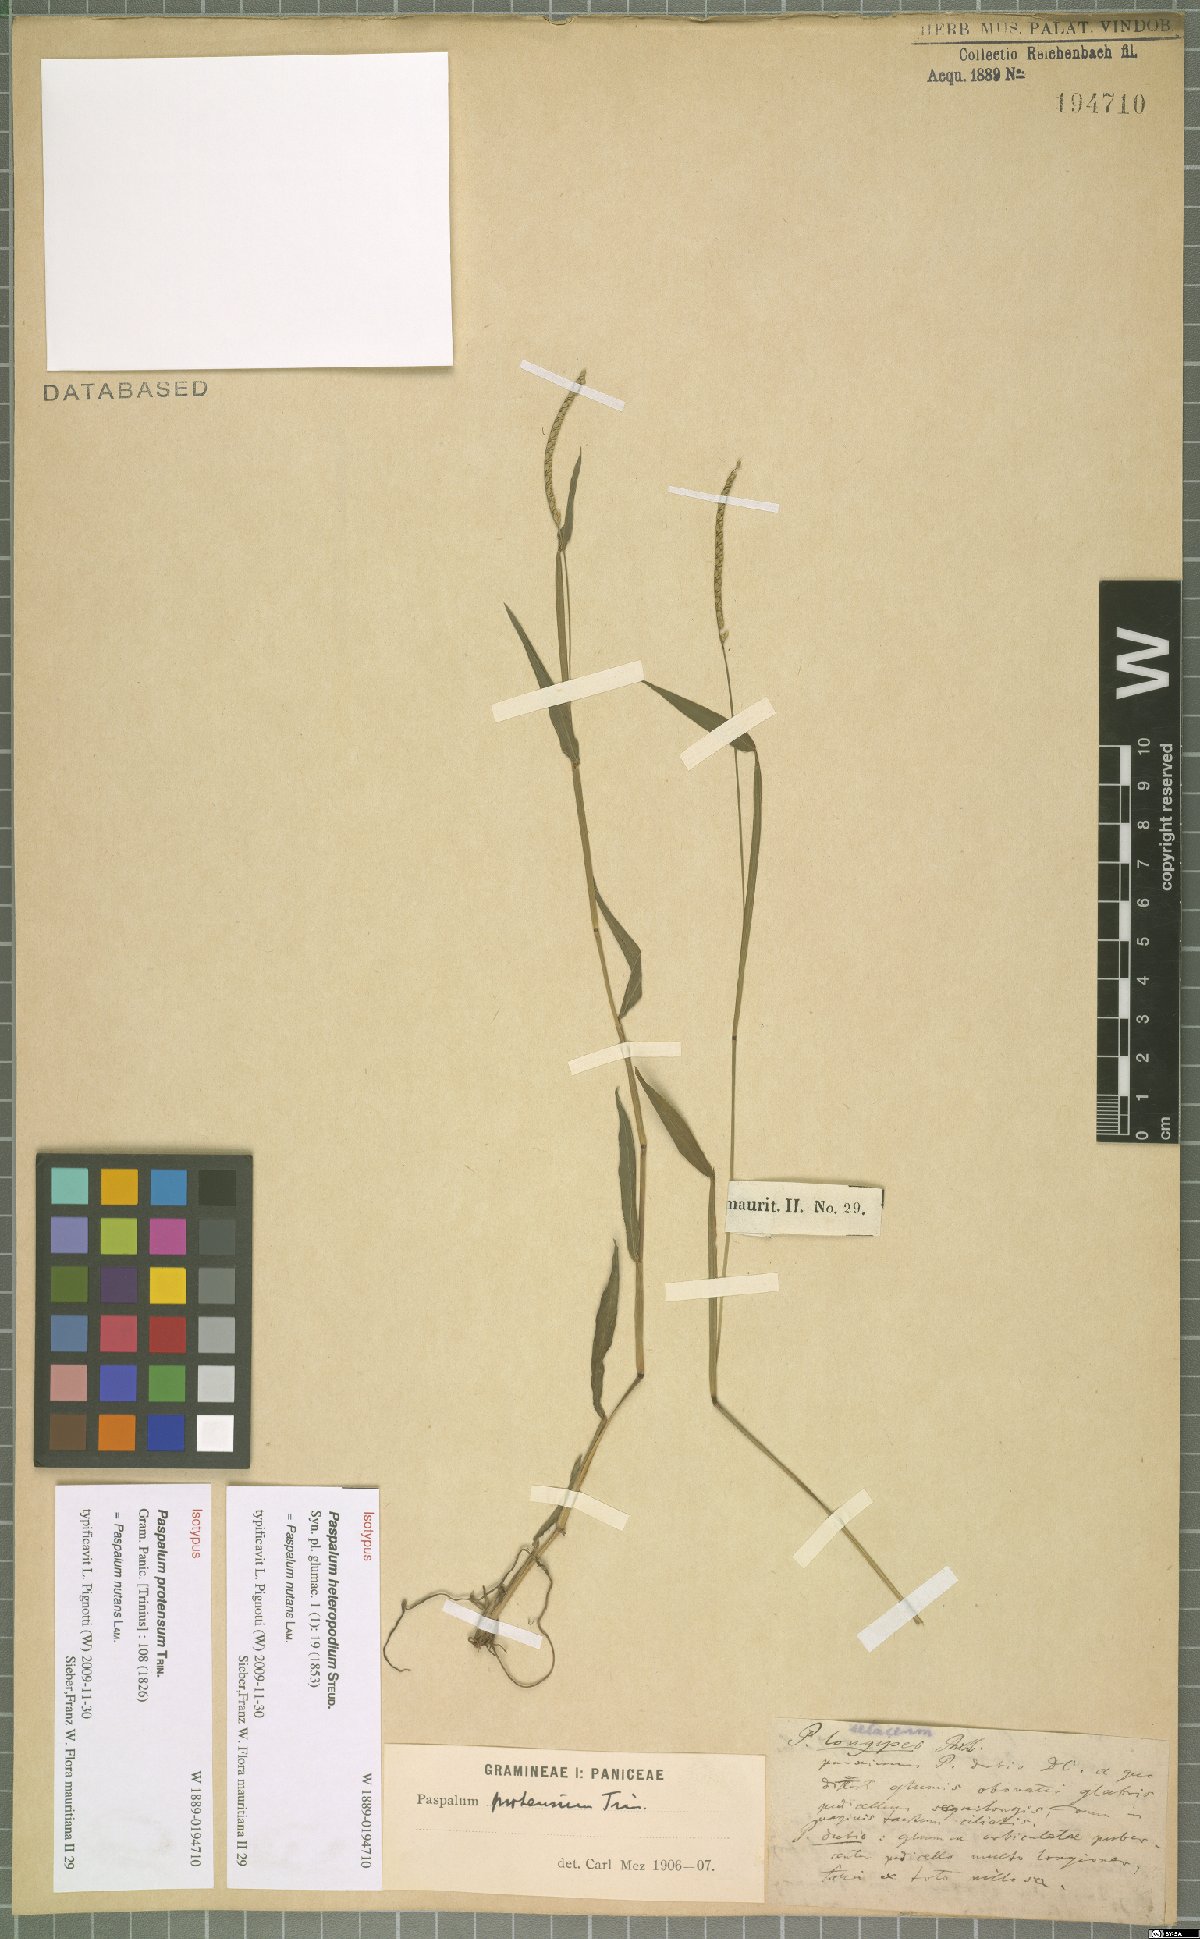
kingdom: Plantae
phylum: Tracheophyta
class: Liliopsida
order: Poales
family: Poaceae
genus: Paspalum
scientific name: Paspalum nutans
